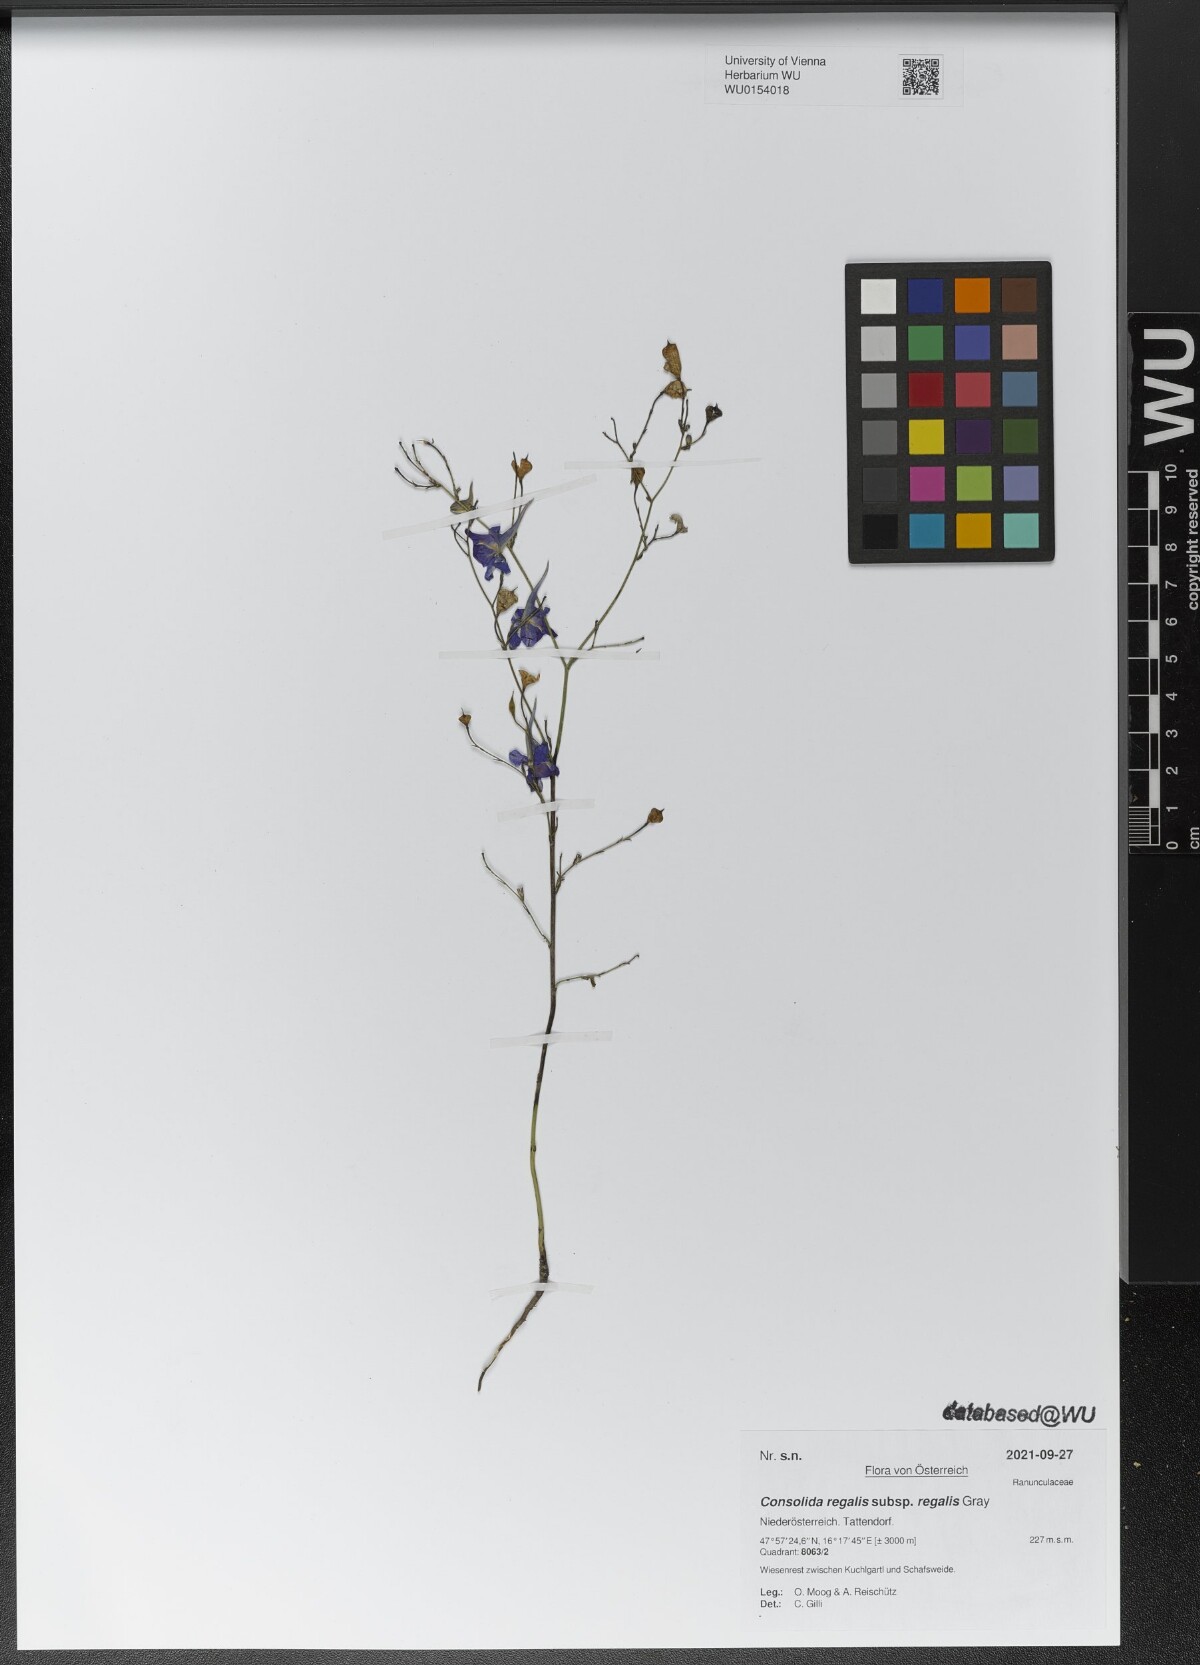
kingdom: Plantae
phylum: Tracheophyta
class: Magnoliopsida
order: Ranunculales
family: Ranunculaceae
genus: Delphinium
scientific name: Delphinium consolida
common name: Branching larkspur
